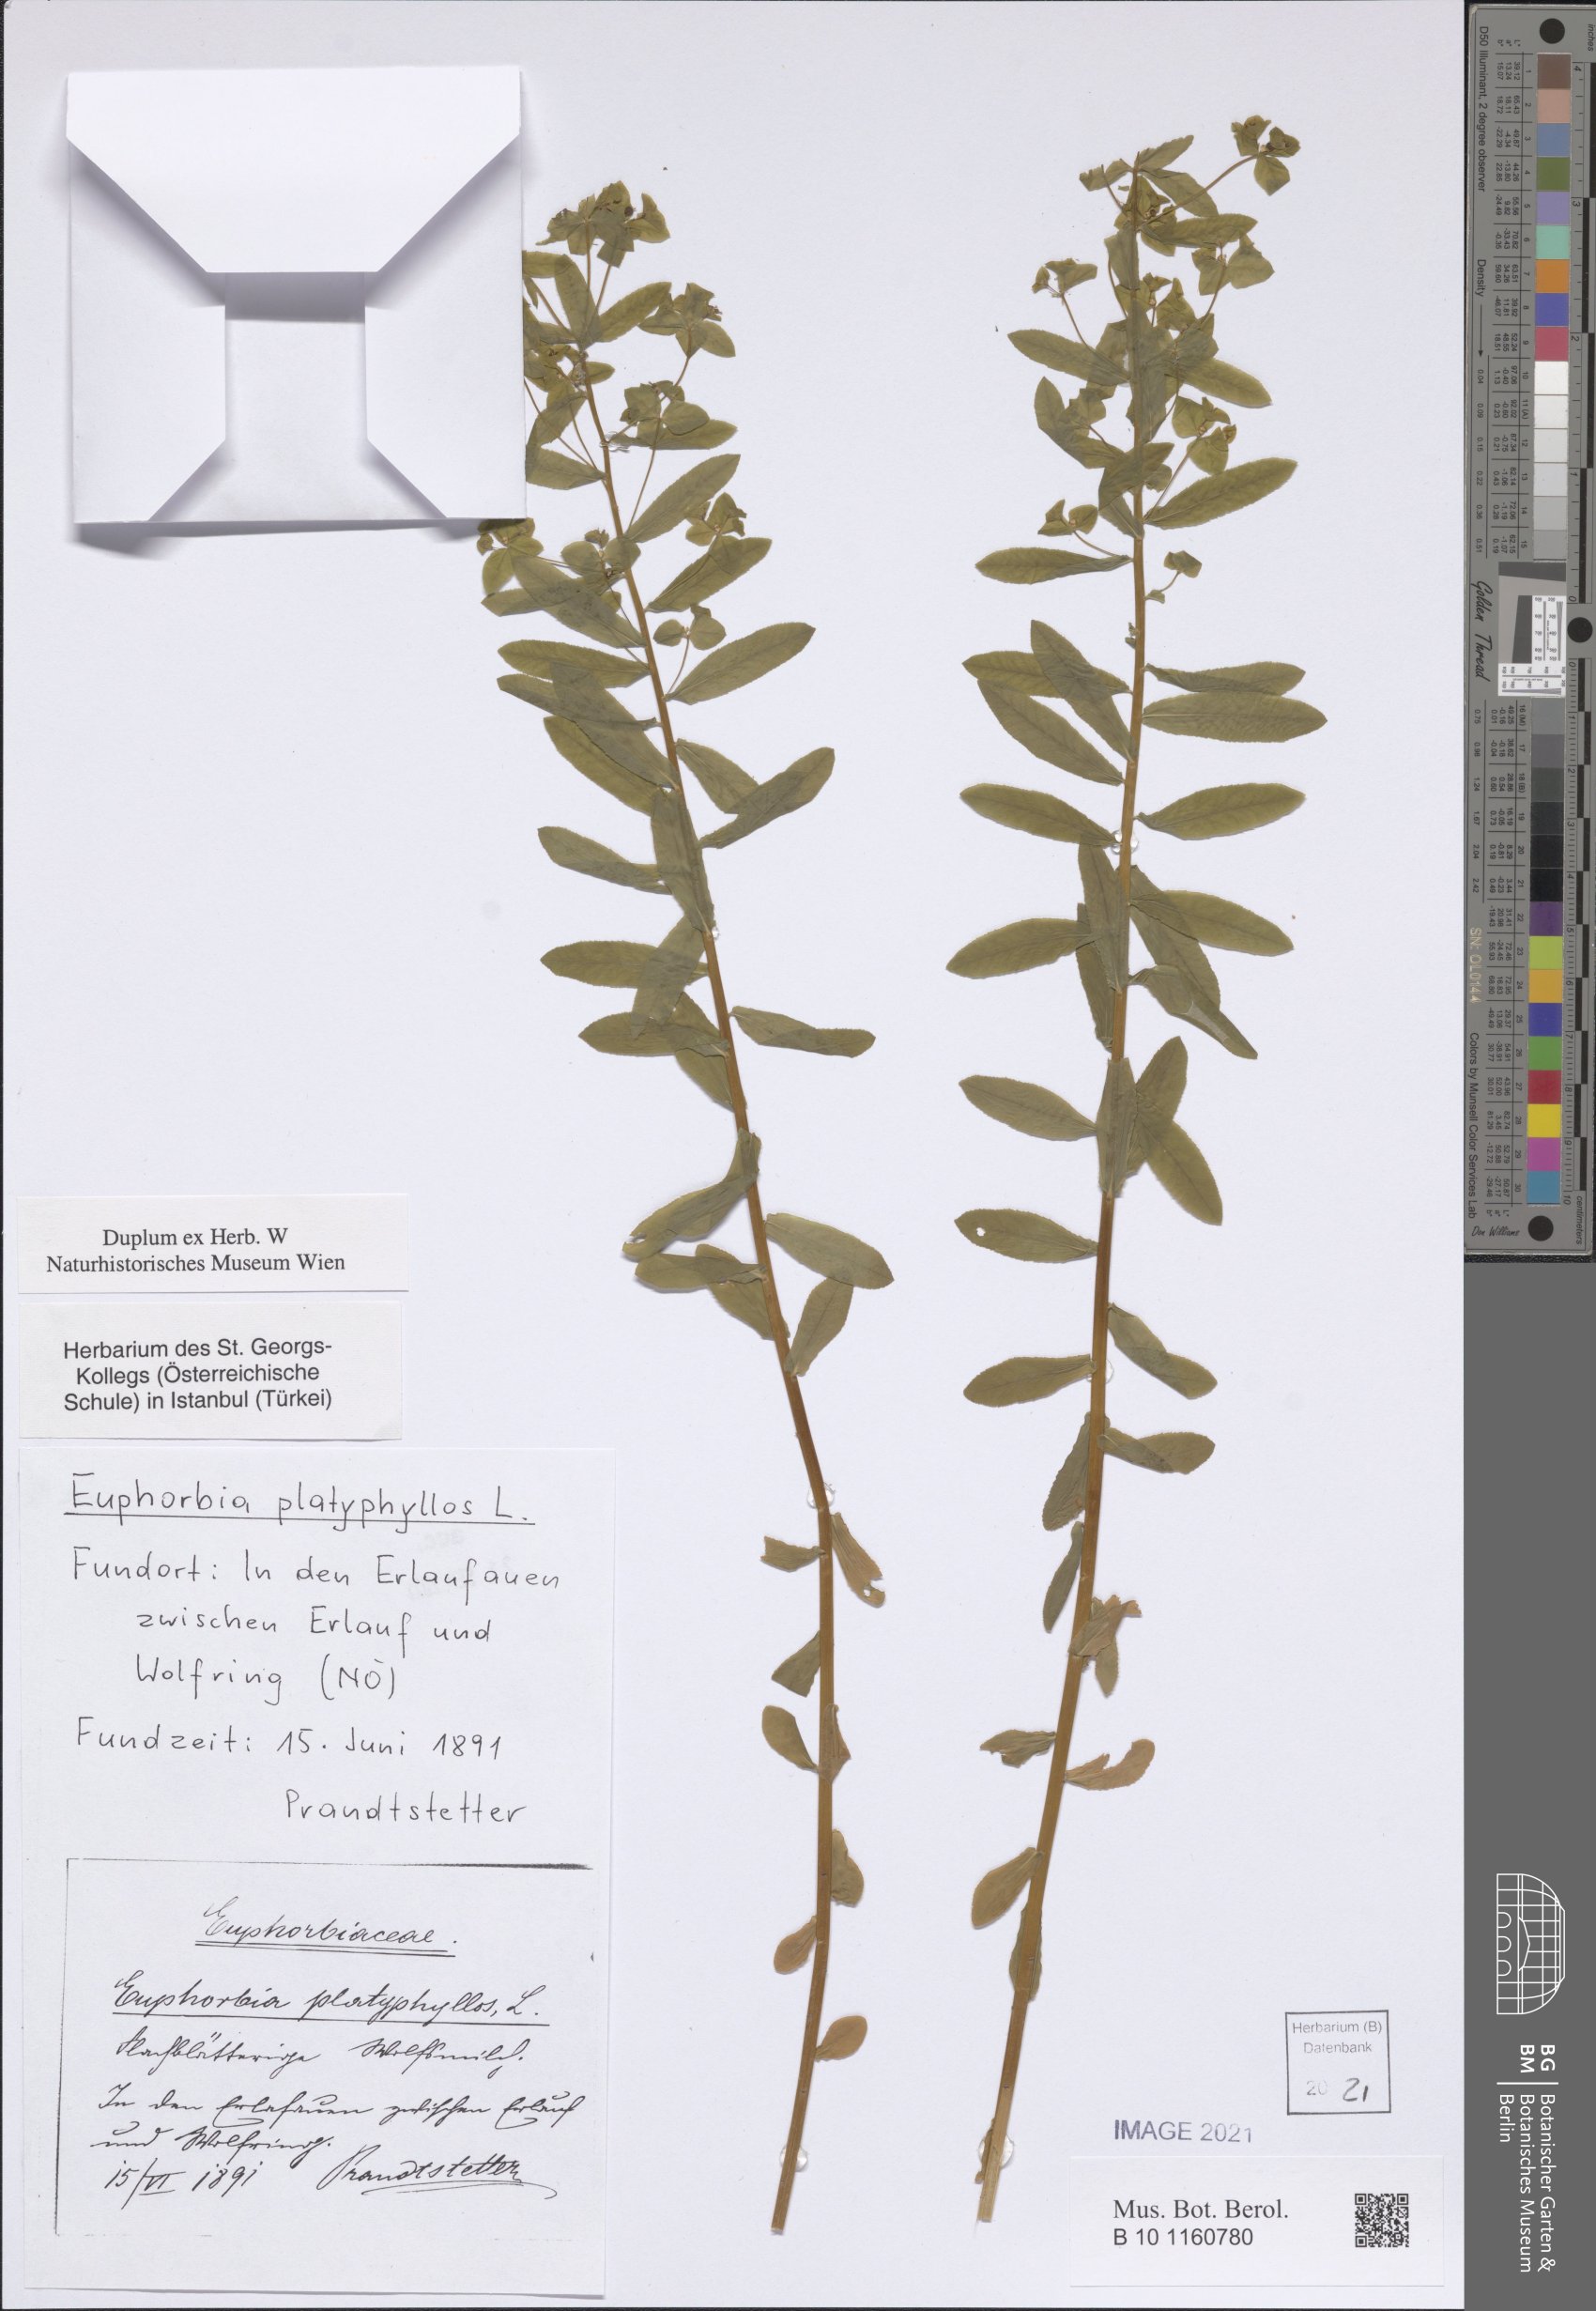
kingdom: Plantae
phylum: Tracheophyta
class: Magnoliopsida
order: Malpighiales
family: Euphorbiaceae
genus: Euphorbia
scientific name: Euphorbia platyphyllos
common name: Broad-leaved spurge
